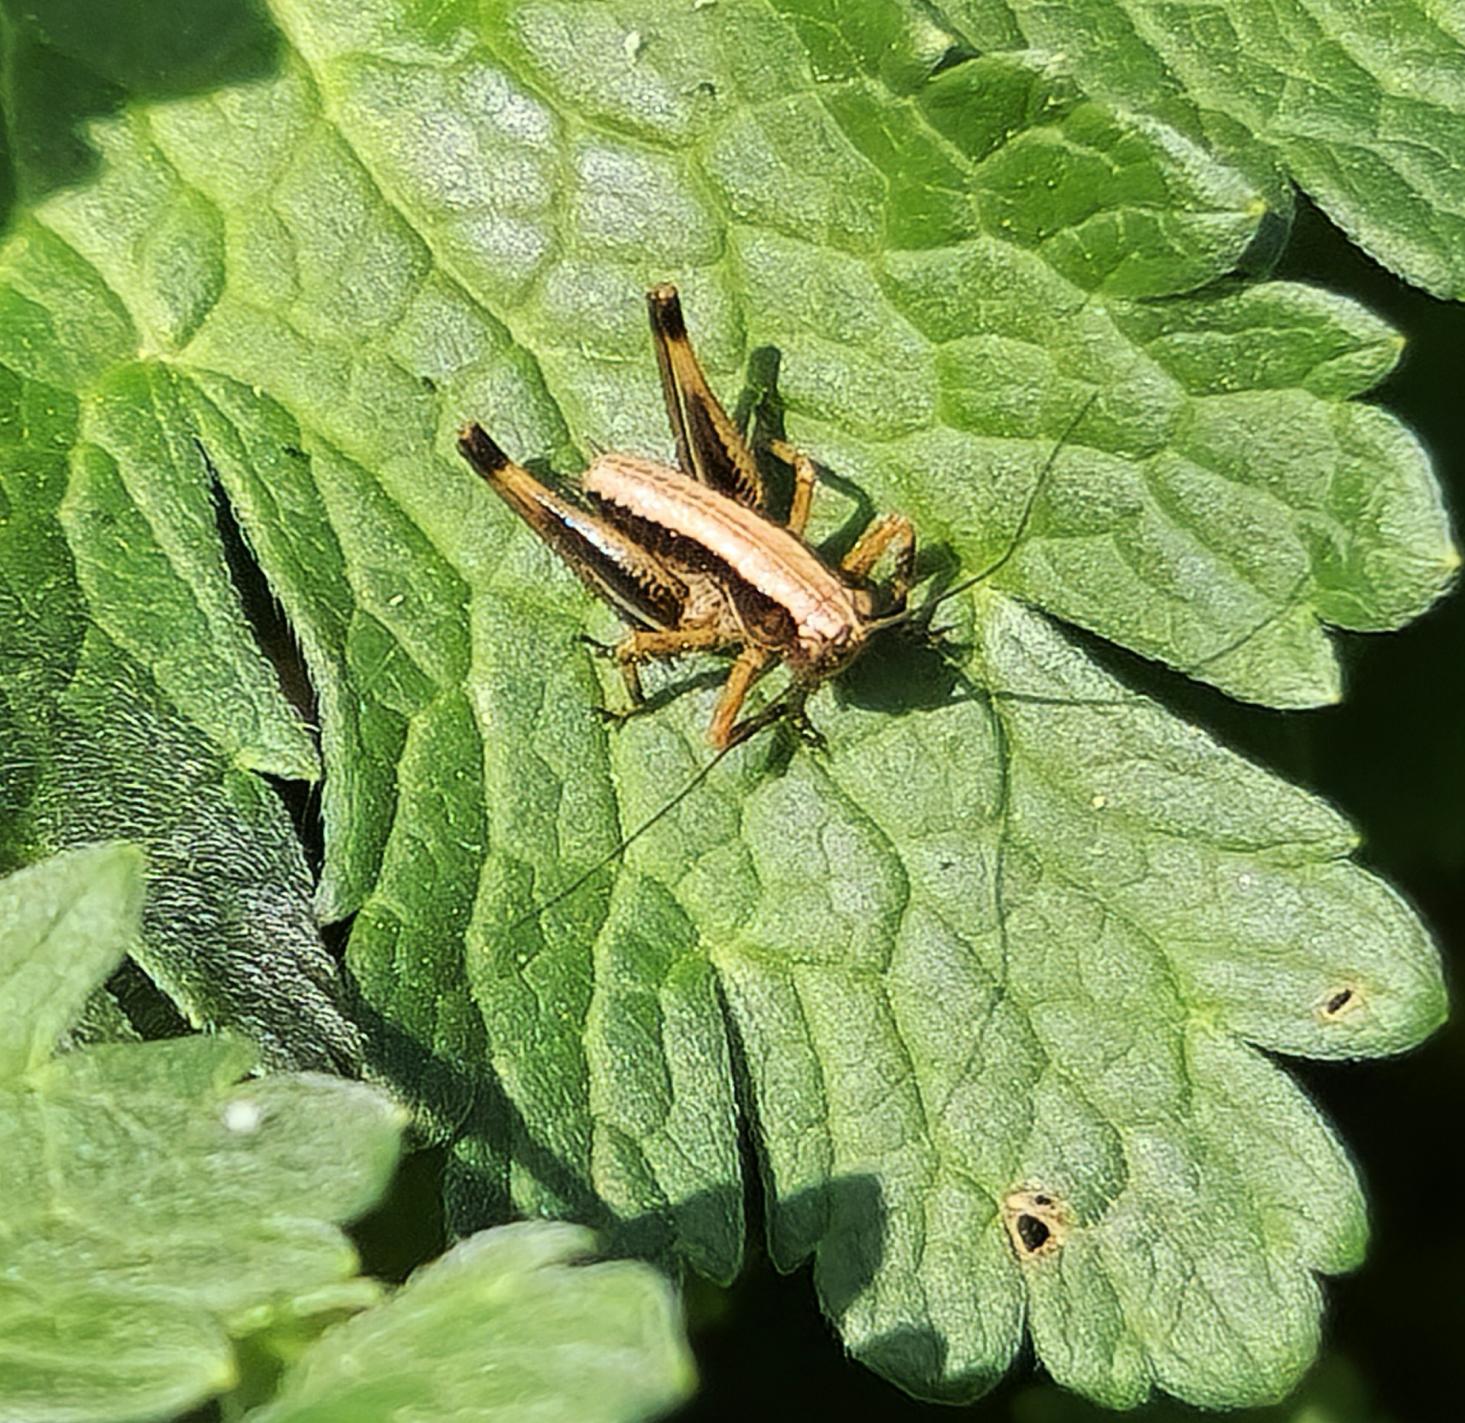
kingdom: Animalia
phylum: Arthropoda
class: Insecta
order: Orthoptera
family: Tettigoniidae
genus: Pholidoptera
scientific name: Pholidoptera griseoaptera
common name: Buskgræshoppe
